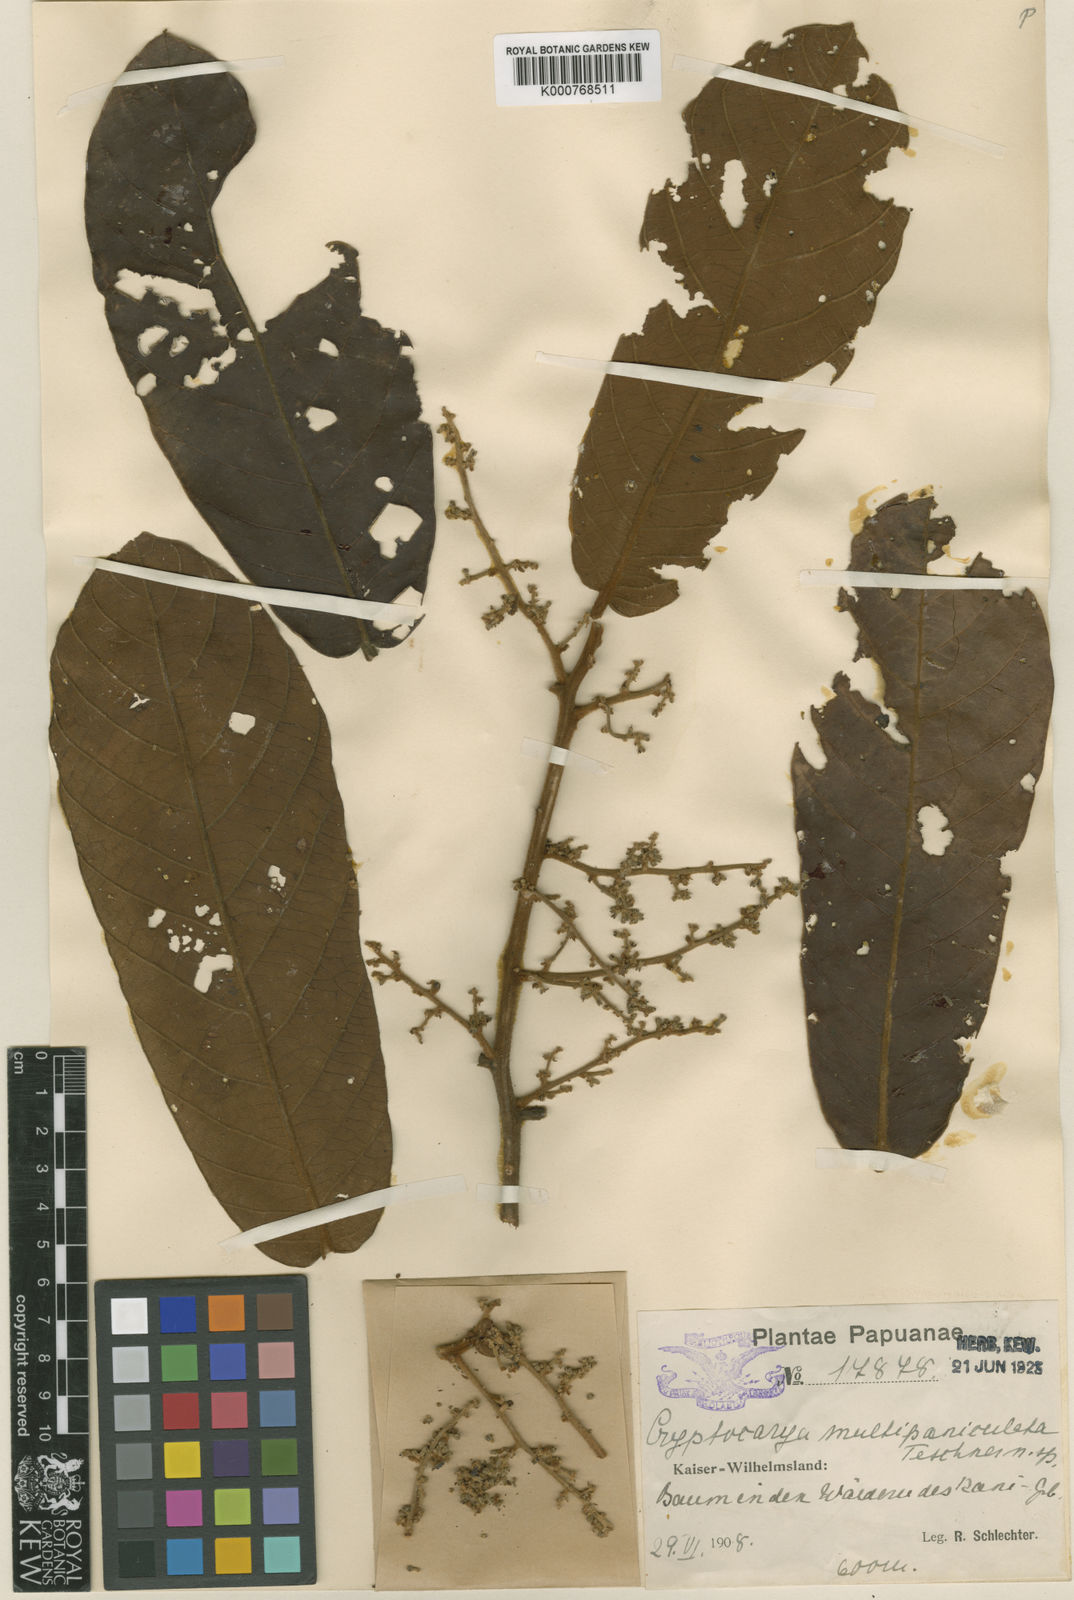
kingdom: Plantae
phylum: Tracheophyta
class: Magnoliopsida
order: Laurales
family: Lauraceae
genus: Cryptocarya
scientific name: Cryptocarya multipaniculata
